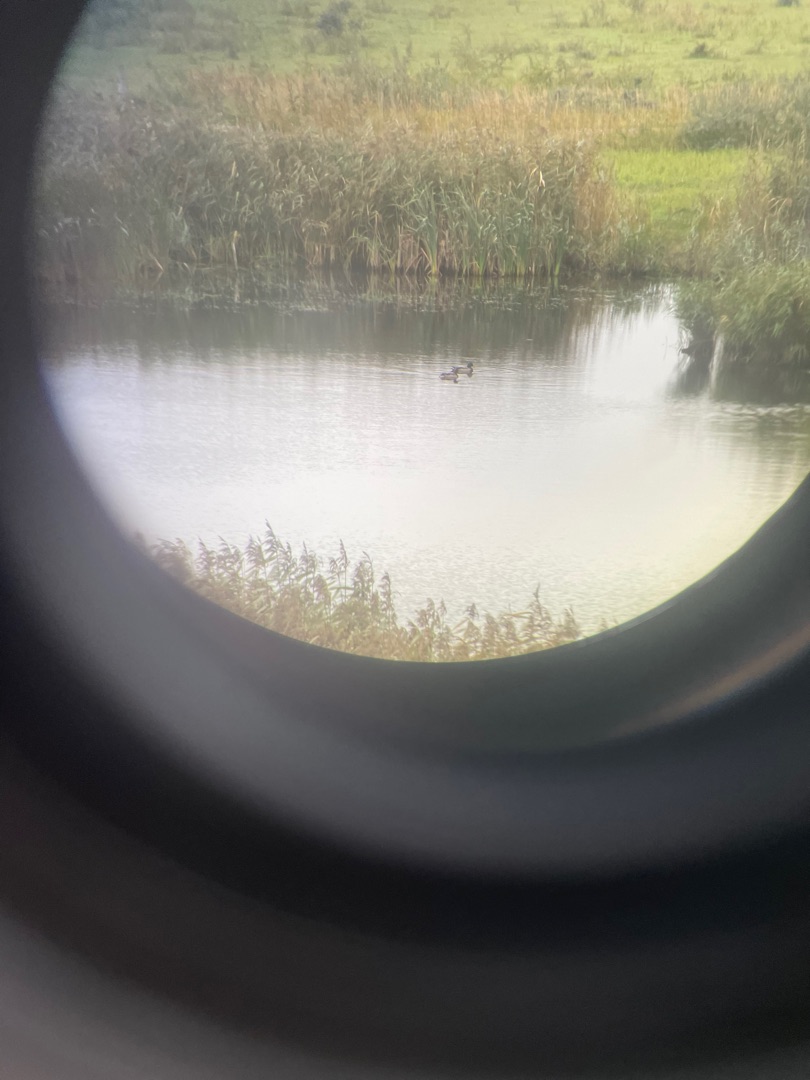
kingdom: Animalia
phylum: Chordata
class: Aves
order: Anseriformes
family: Anatidae
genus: Anas
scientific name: Anas platyrhynchos
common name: Gråand
